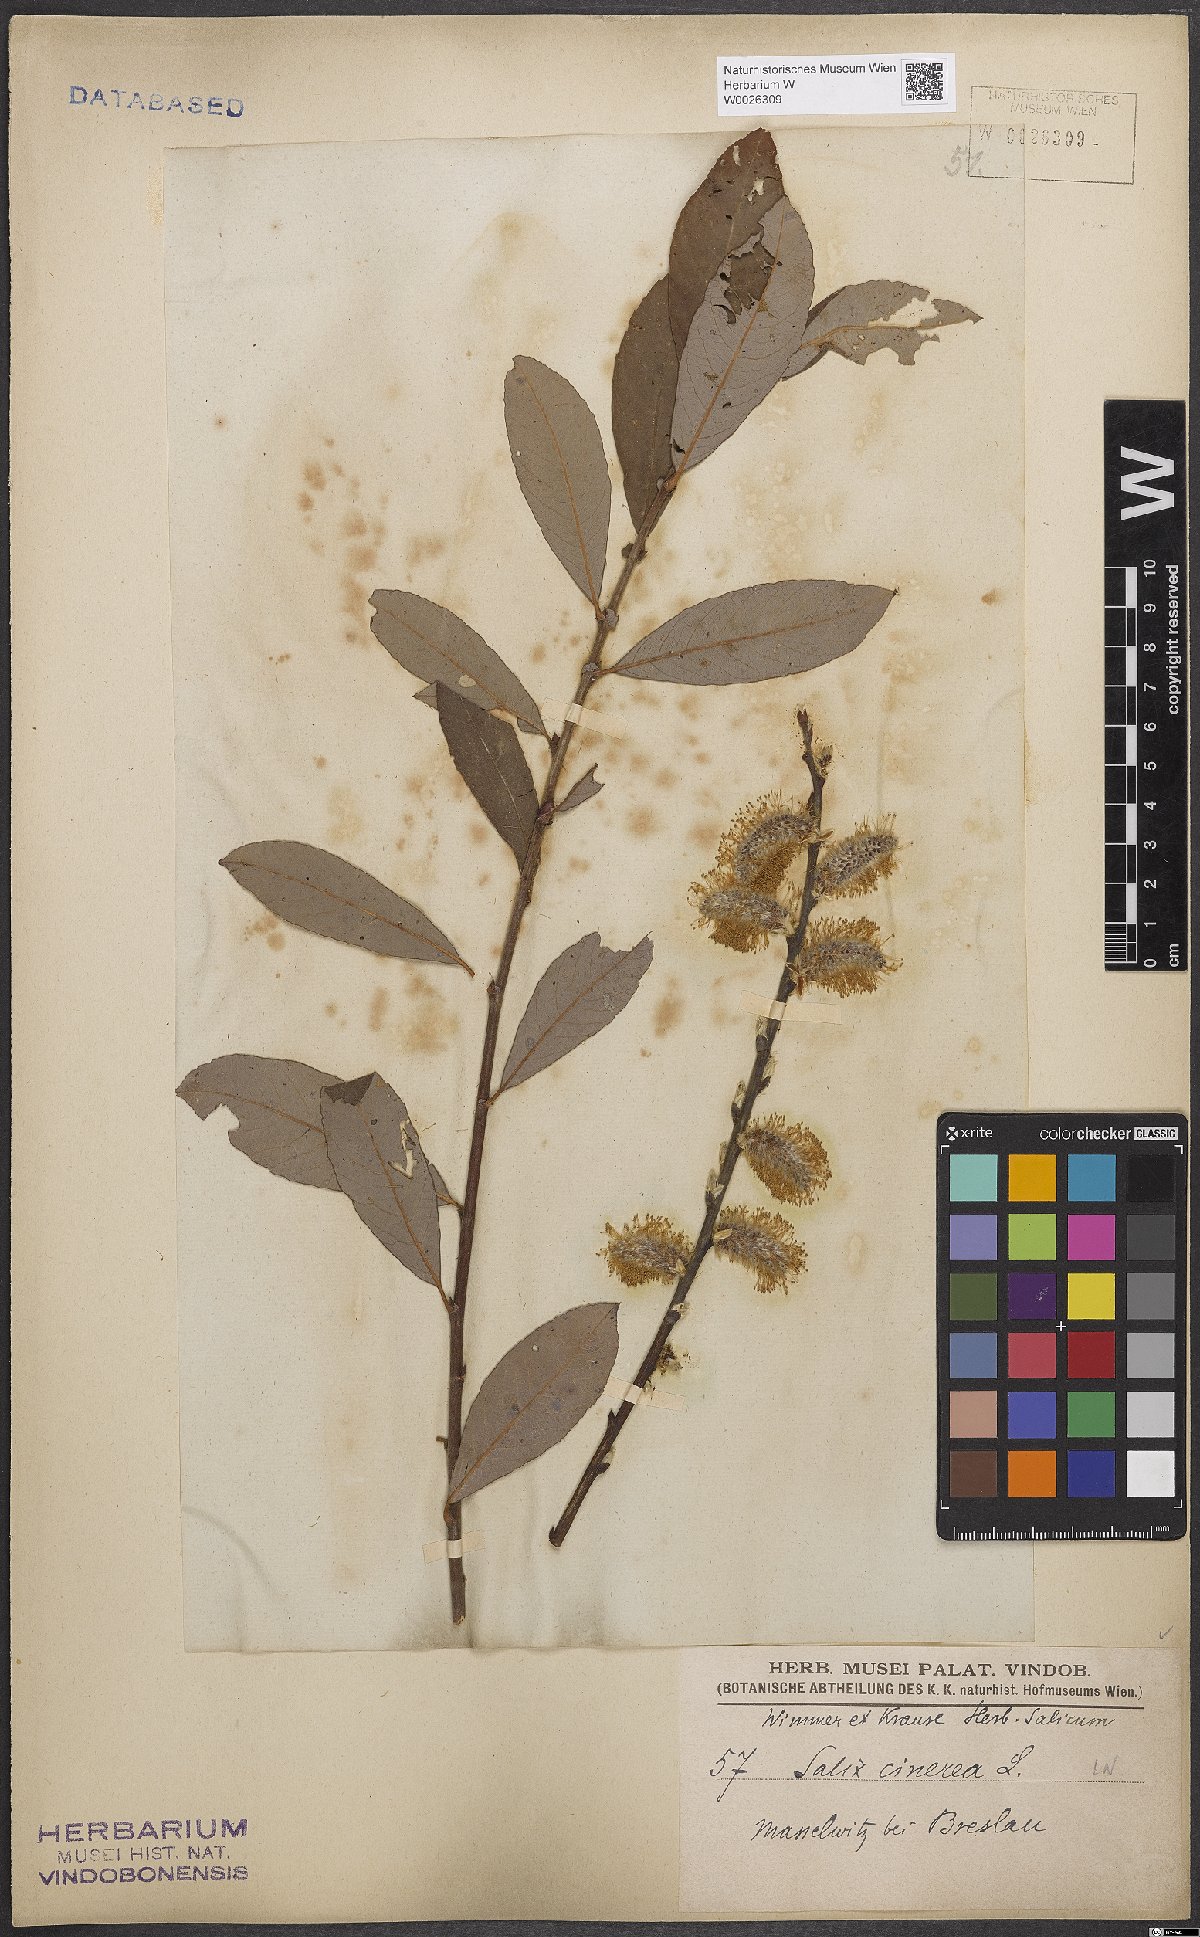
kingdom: Plantae
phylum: Tracheophyta
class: Magnoliopsida
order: Malpighiales
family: Salicaceae
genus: Salix
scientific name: Salix cinerea
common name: Common sallow
